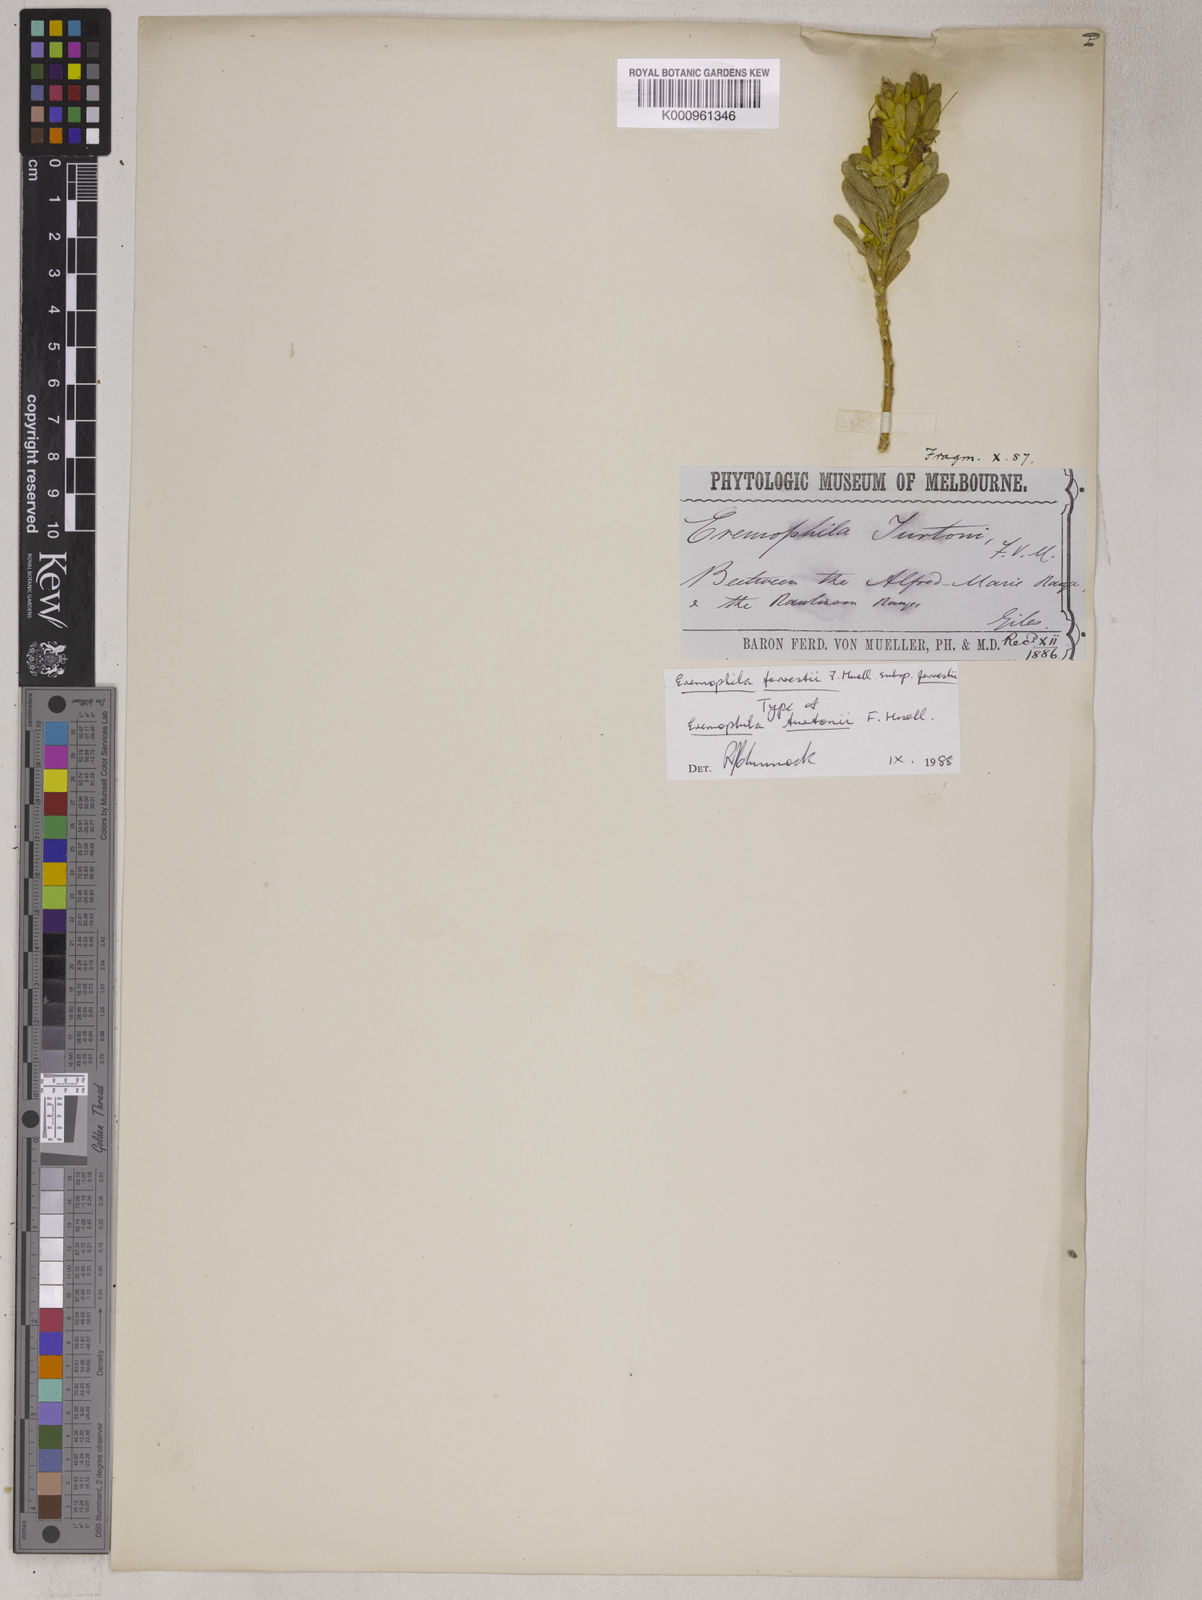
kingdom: Plantae
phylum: Tracheophyta
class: Magnoliopsida
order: Lamiales
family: Scrophulariaceae
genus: Eremophila
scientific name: Eremophila forrestii
